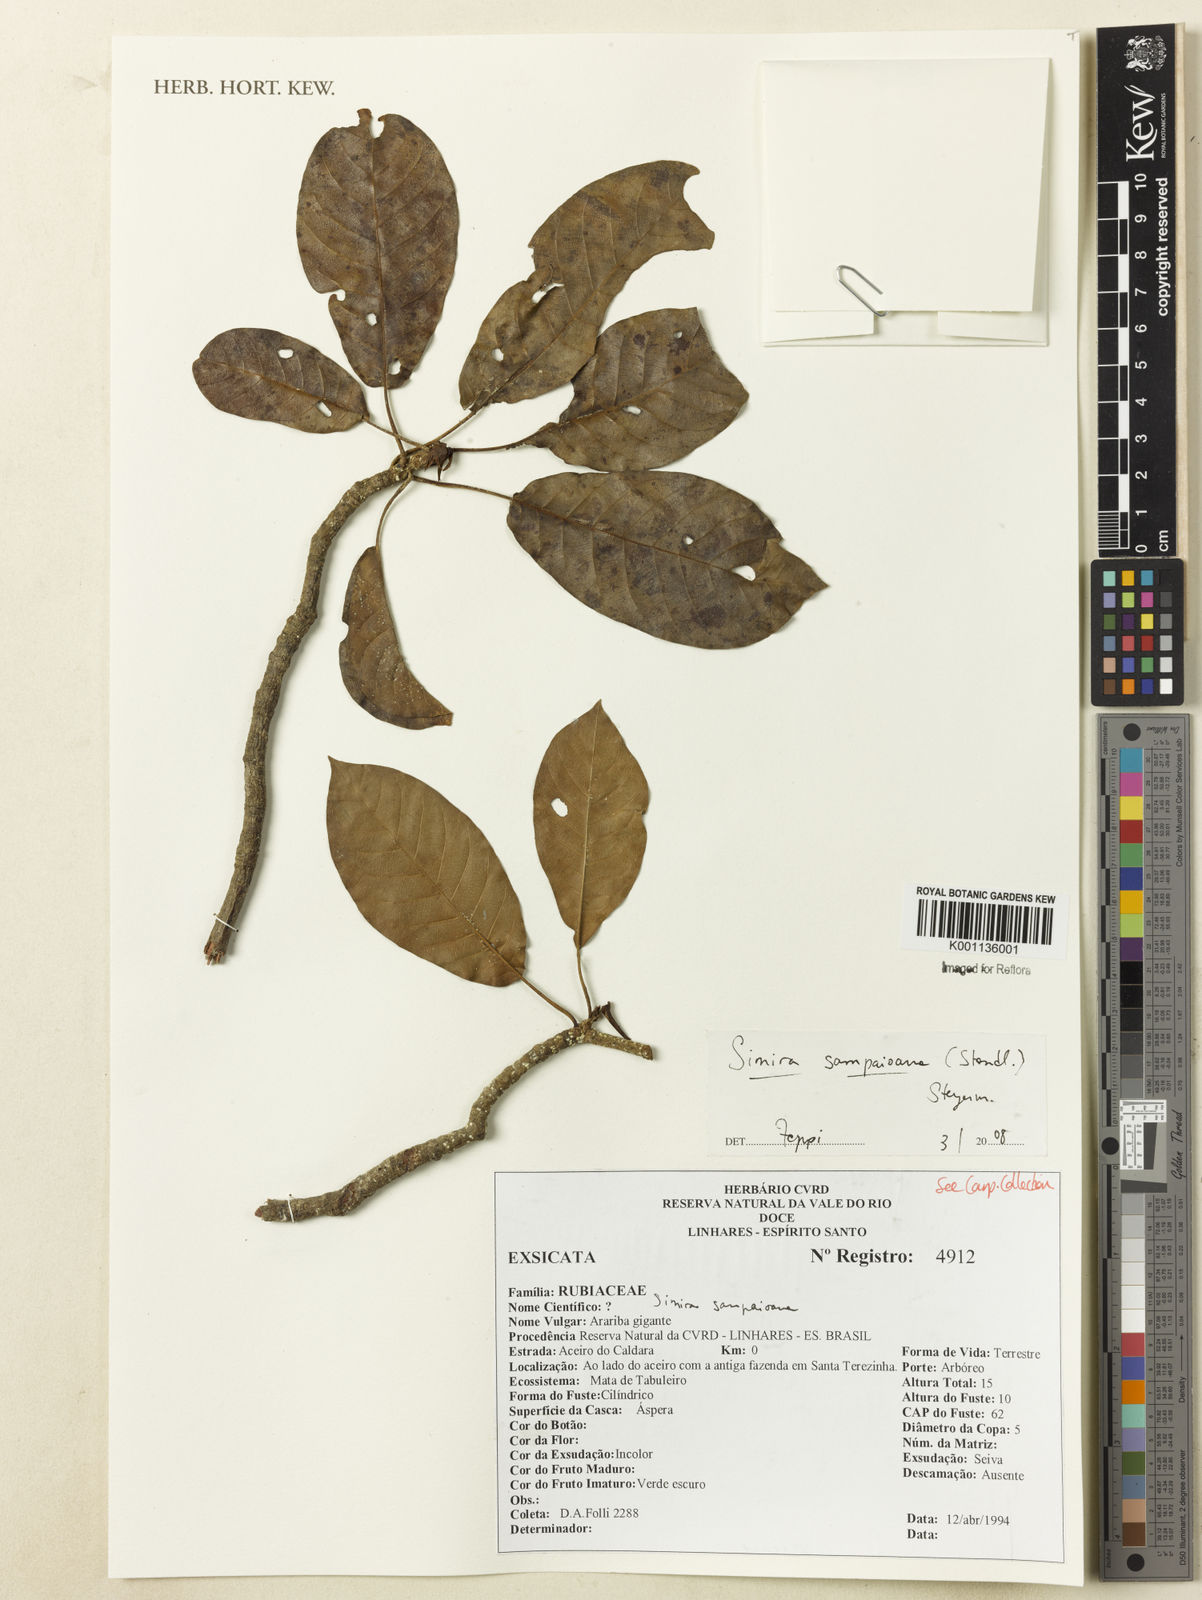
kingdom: Plantae
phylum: Tracheophyta
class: Magnoliopsida
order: Gentianales
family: Rubiaceae
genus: Simira
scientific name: Simira sampaioana
